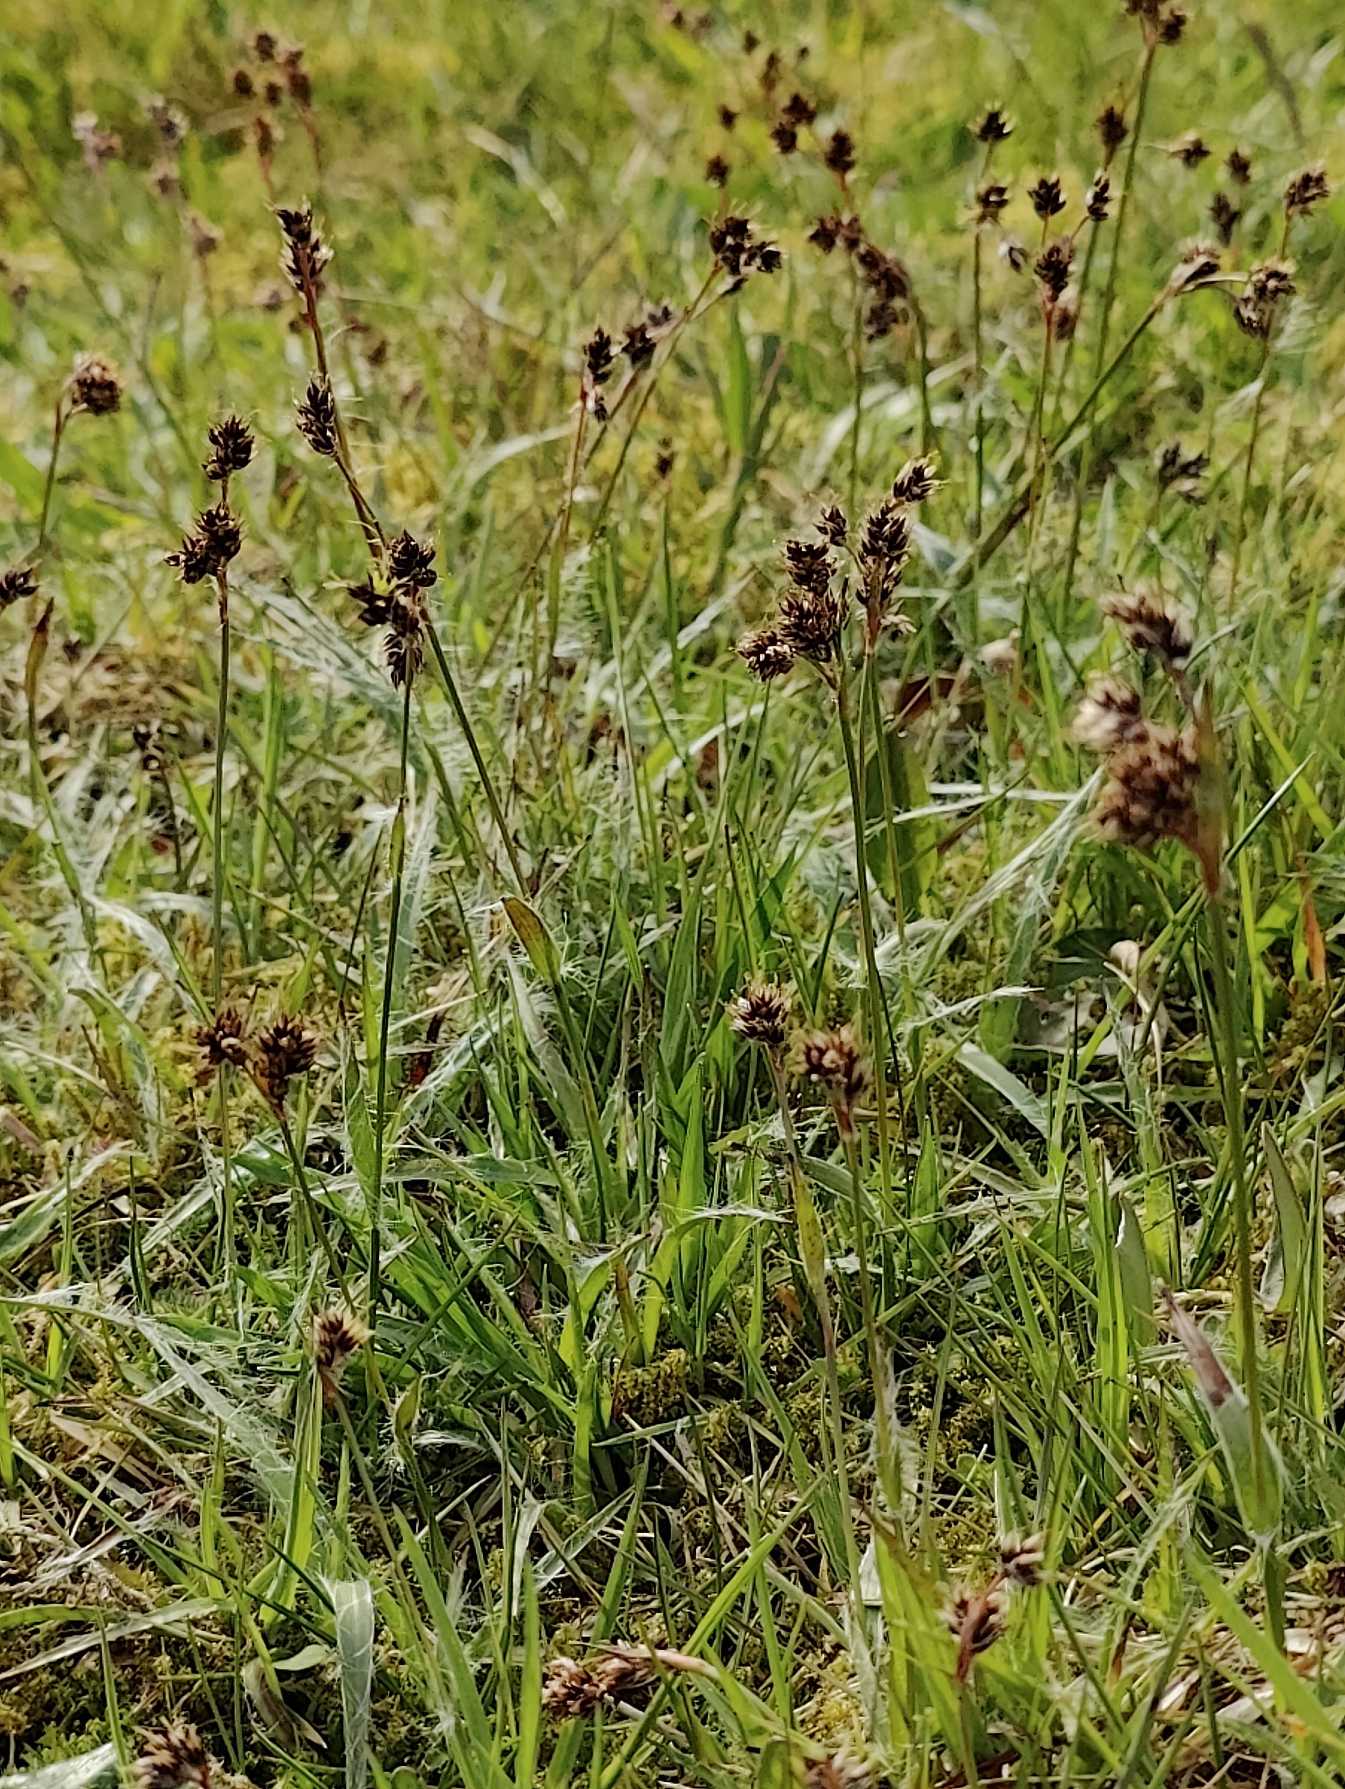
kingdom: Plantae
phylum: Tracheophyta
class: Liliopsida
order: Poales
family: Juncaceae
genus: Luzula
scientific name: Luzula campestris
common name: Mark-frytle
